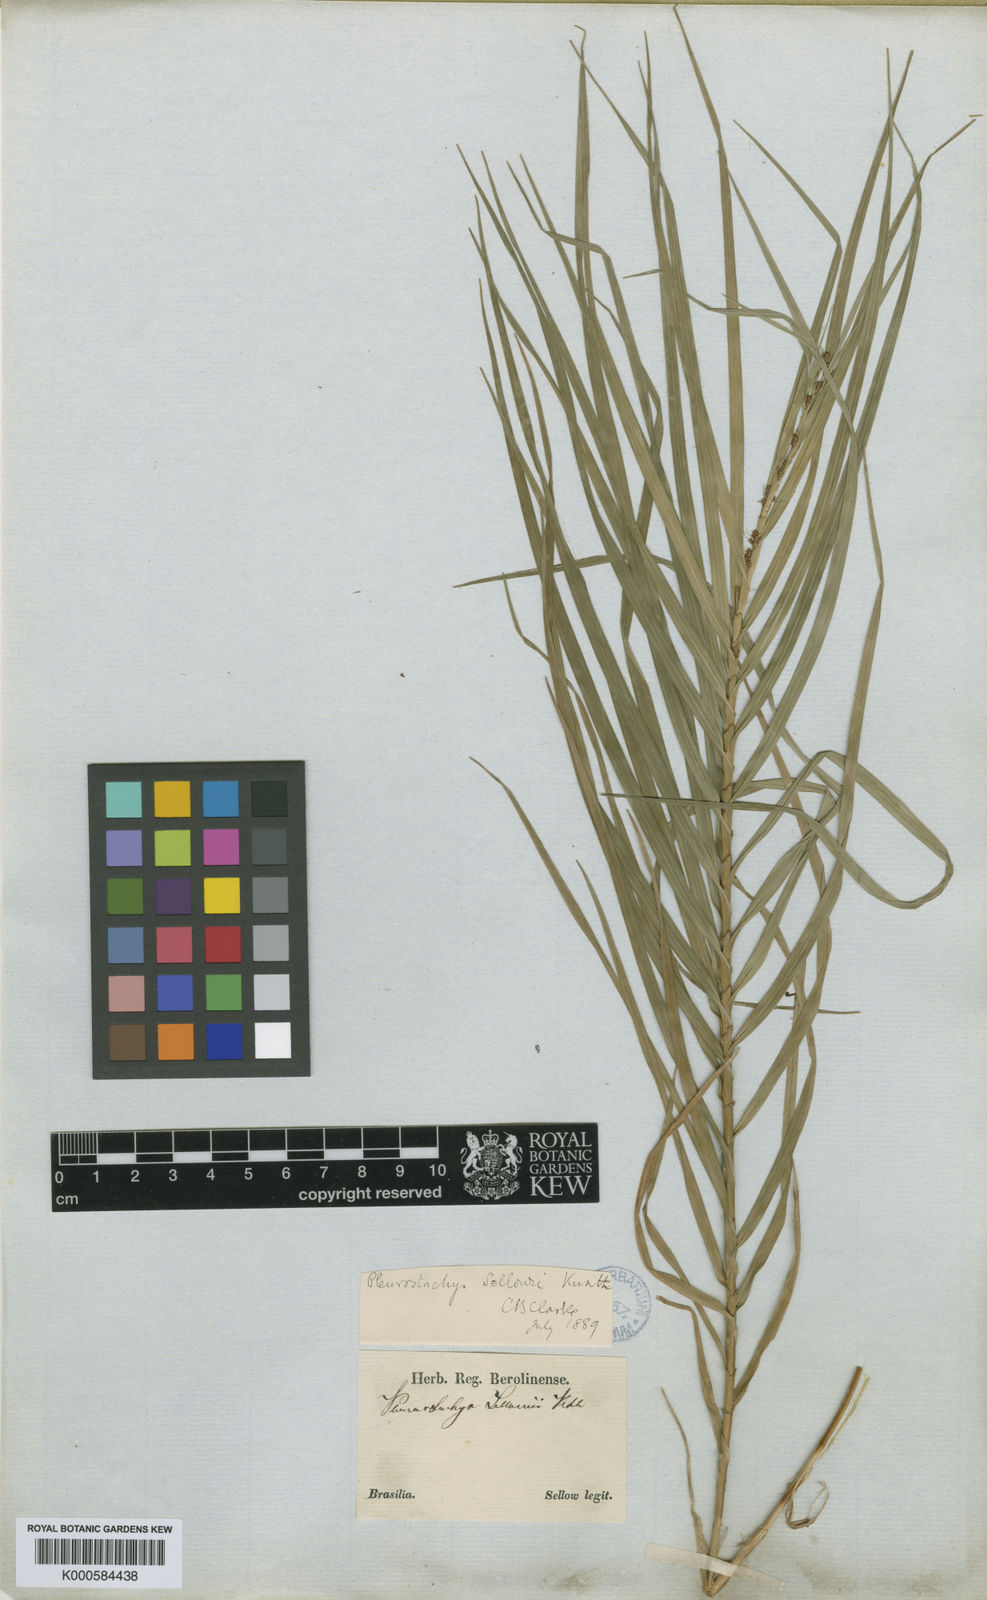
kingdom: Plantae
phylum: Tracheophyta
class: Liliopsida
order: Poales
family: Cyperaceae
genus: Rhynchospora
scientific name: Rhynchospora foliosa
